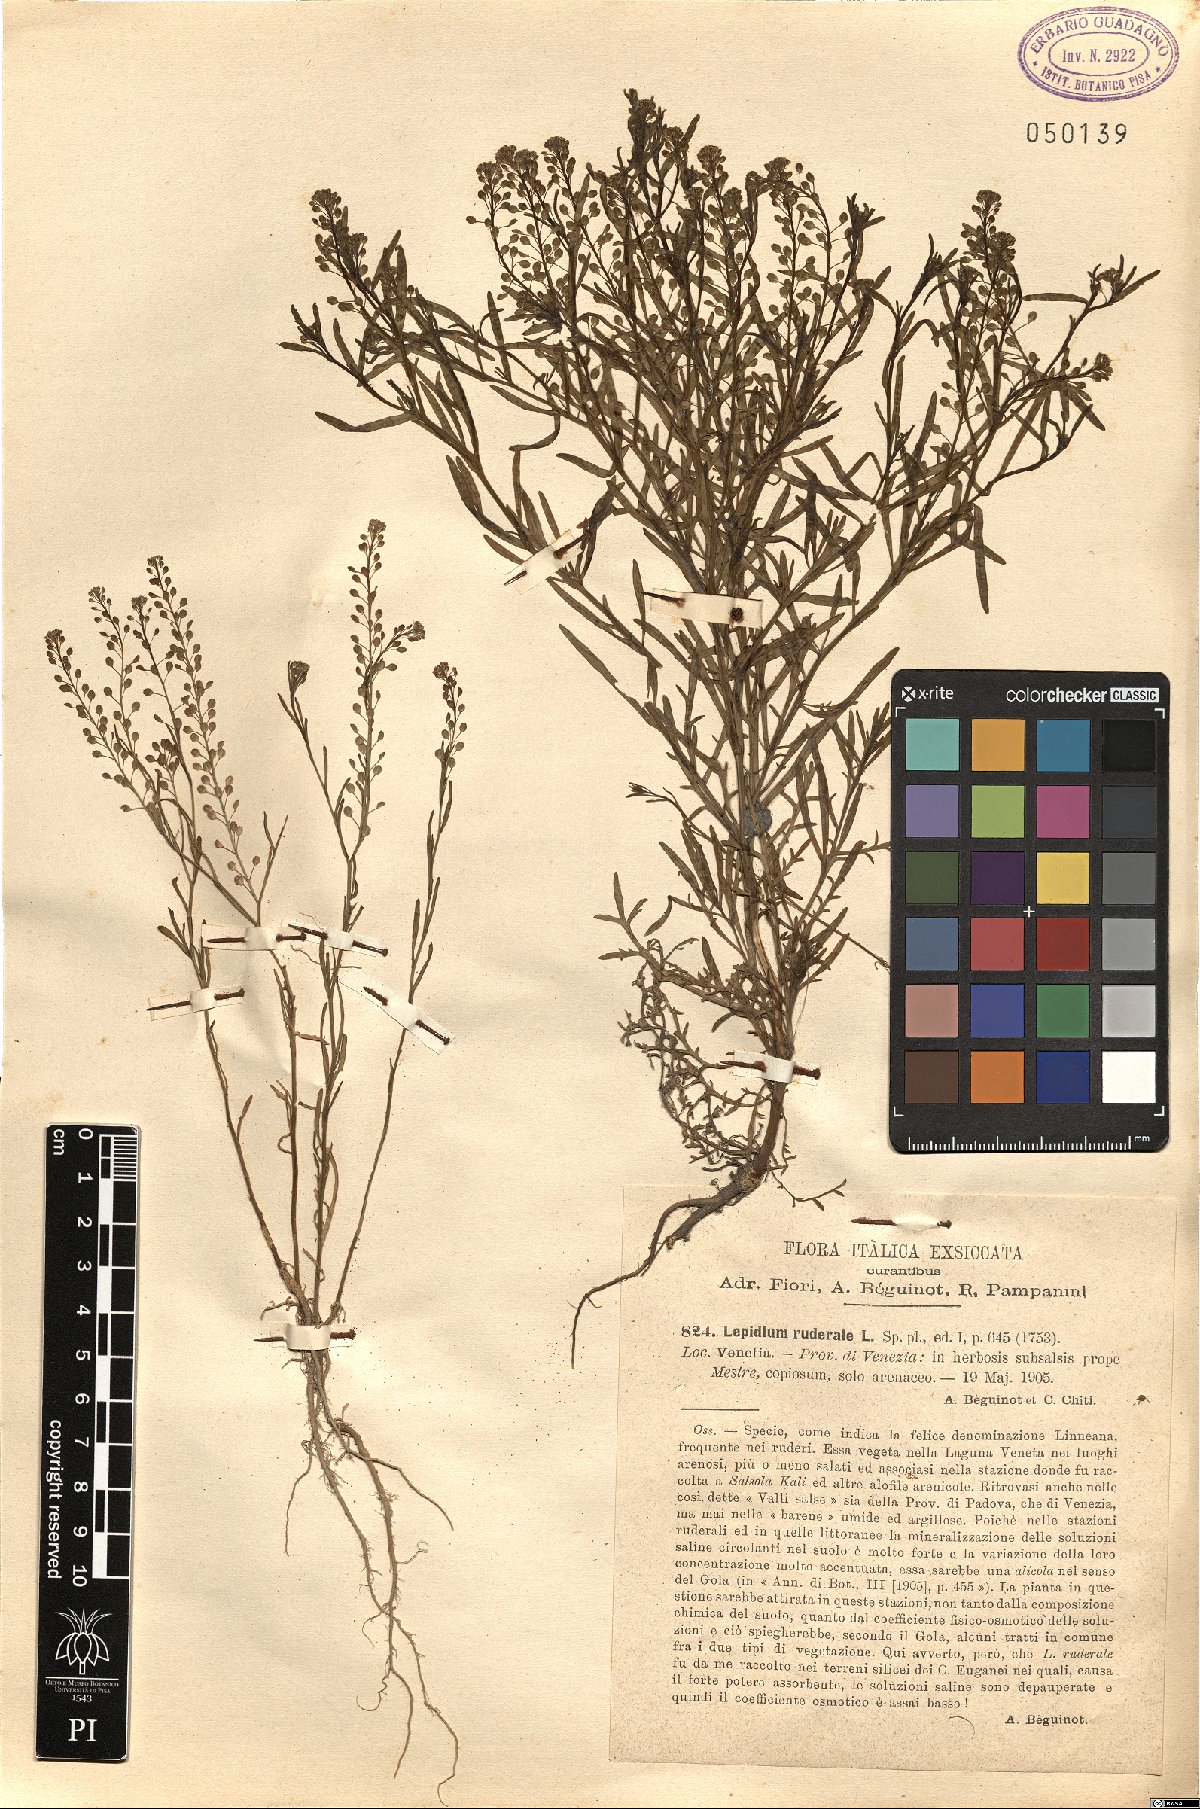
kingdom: Plantae
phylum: Tracheophyta
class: Magnoliopsida
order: Brassicales
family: Brassicaceae
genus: Lepidium
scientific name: Lepidium ruderale
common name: Narrow-leaved pepperwort
